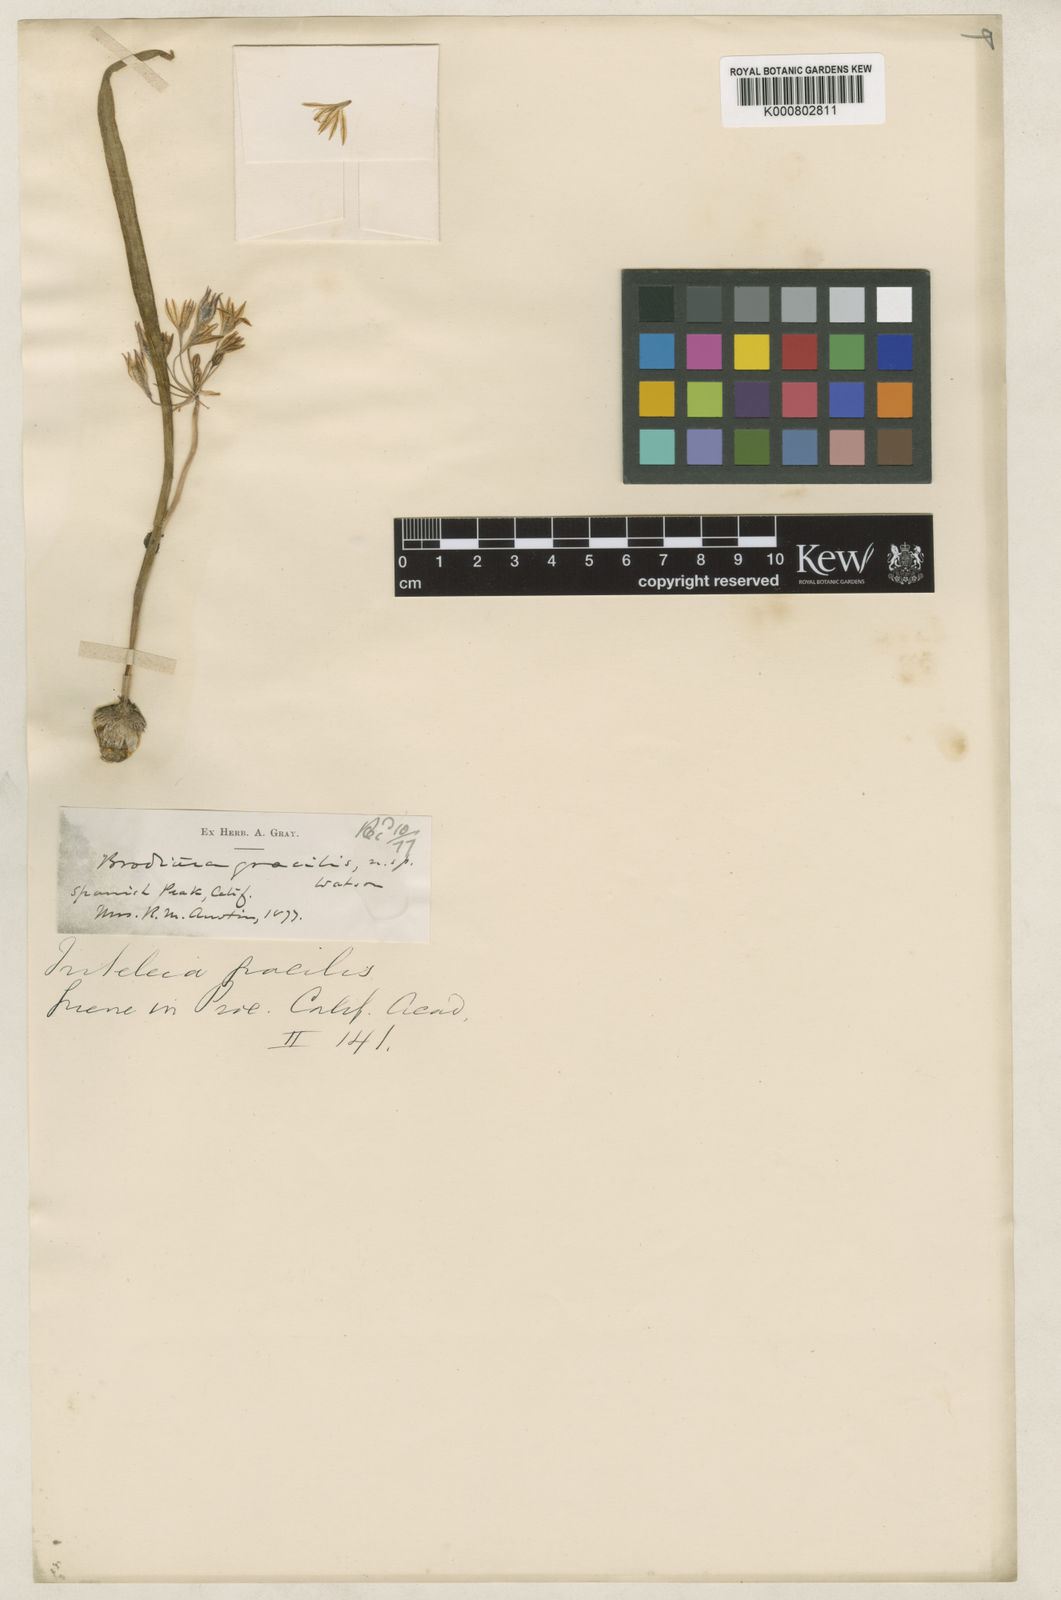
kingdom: Plantae
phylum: Tracheophyta
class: Liliopsida
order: Asparagales
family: Asparagaceae
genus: Triteleia
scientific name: Triteleia montana
